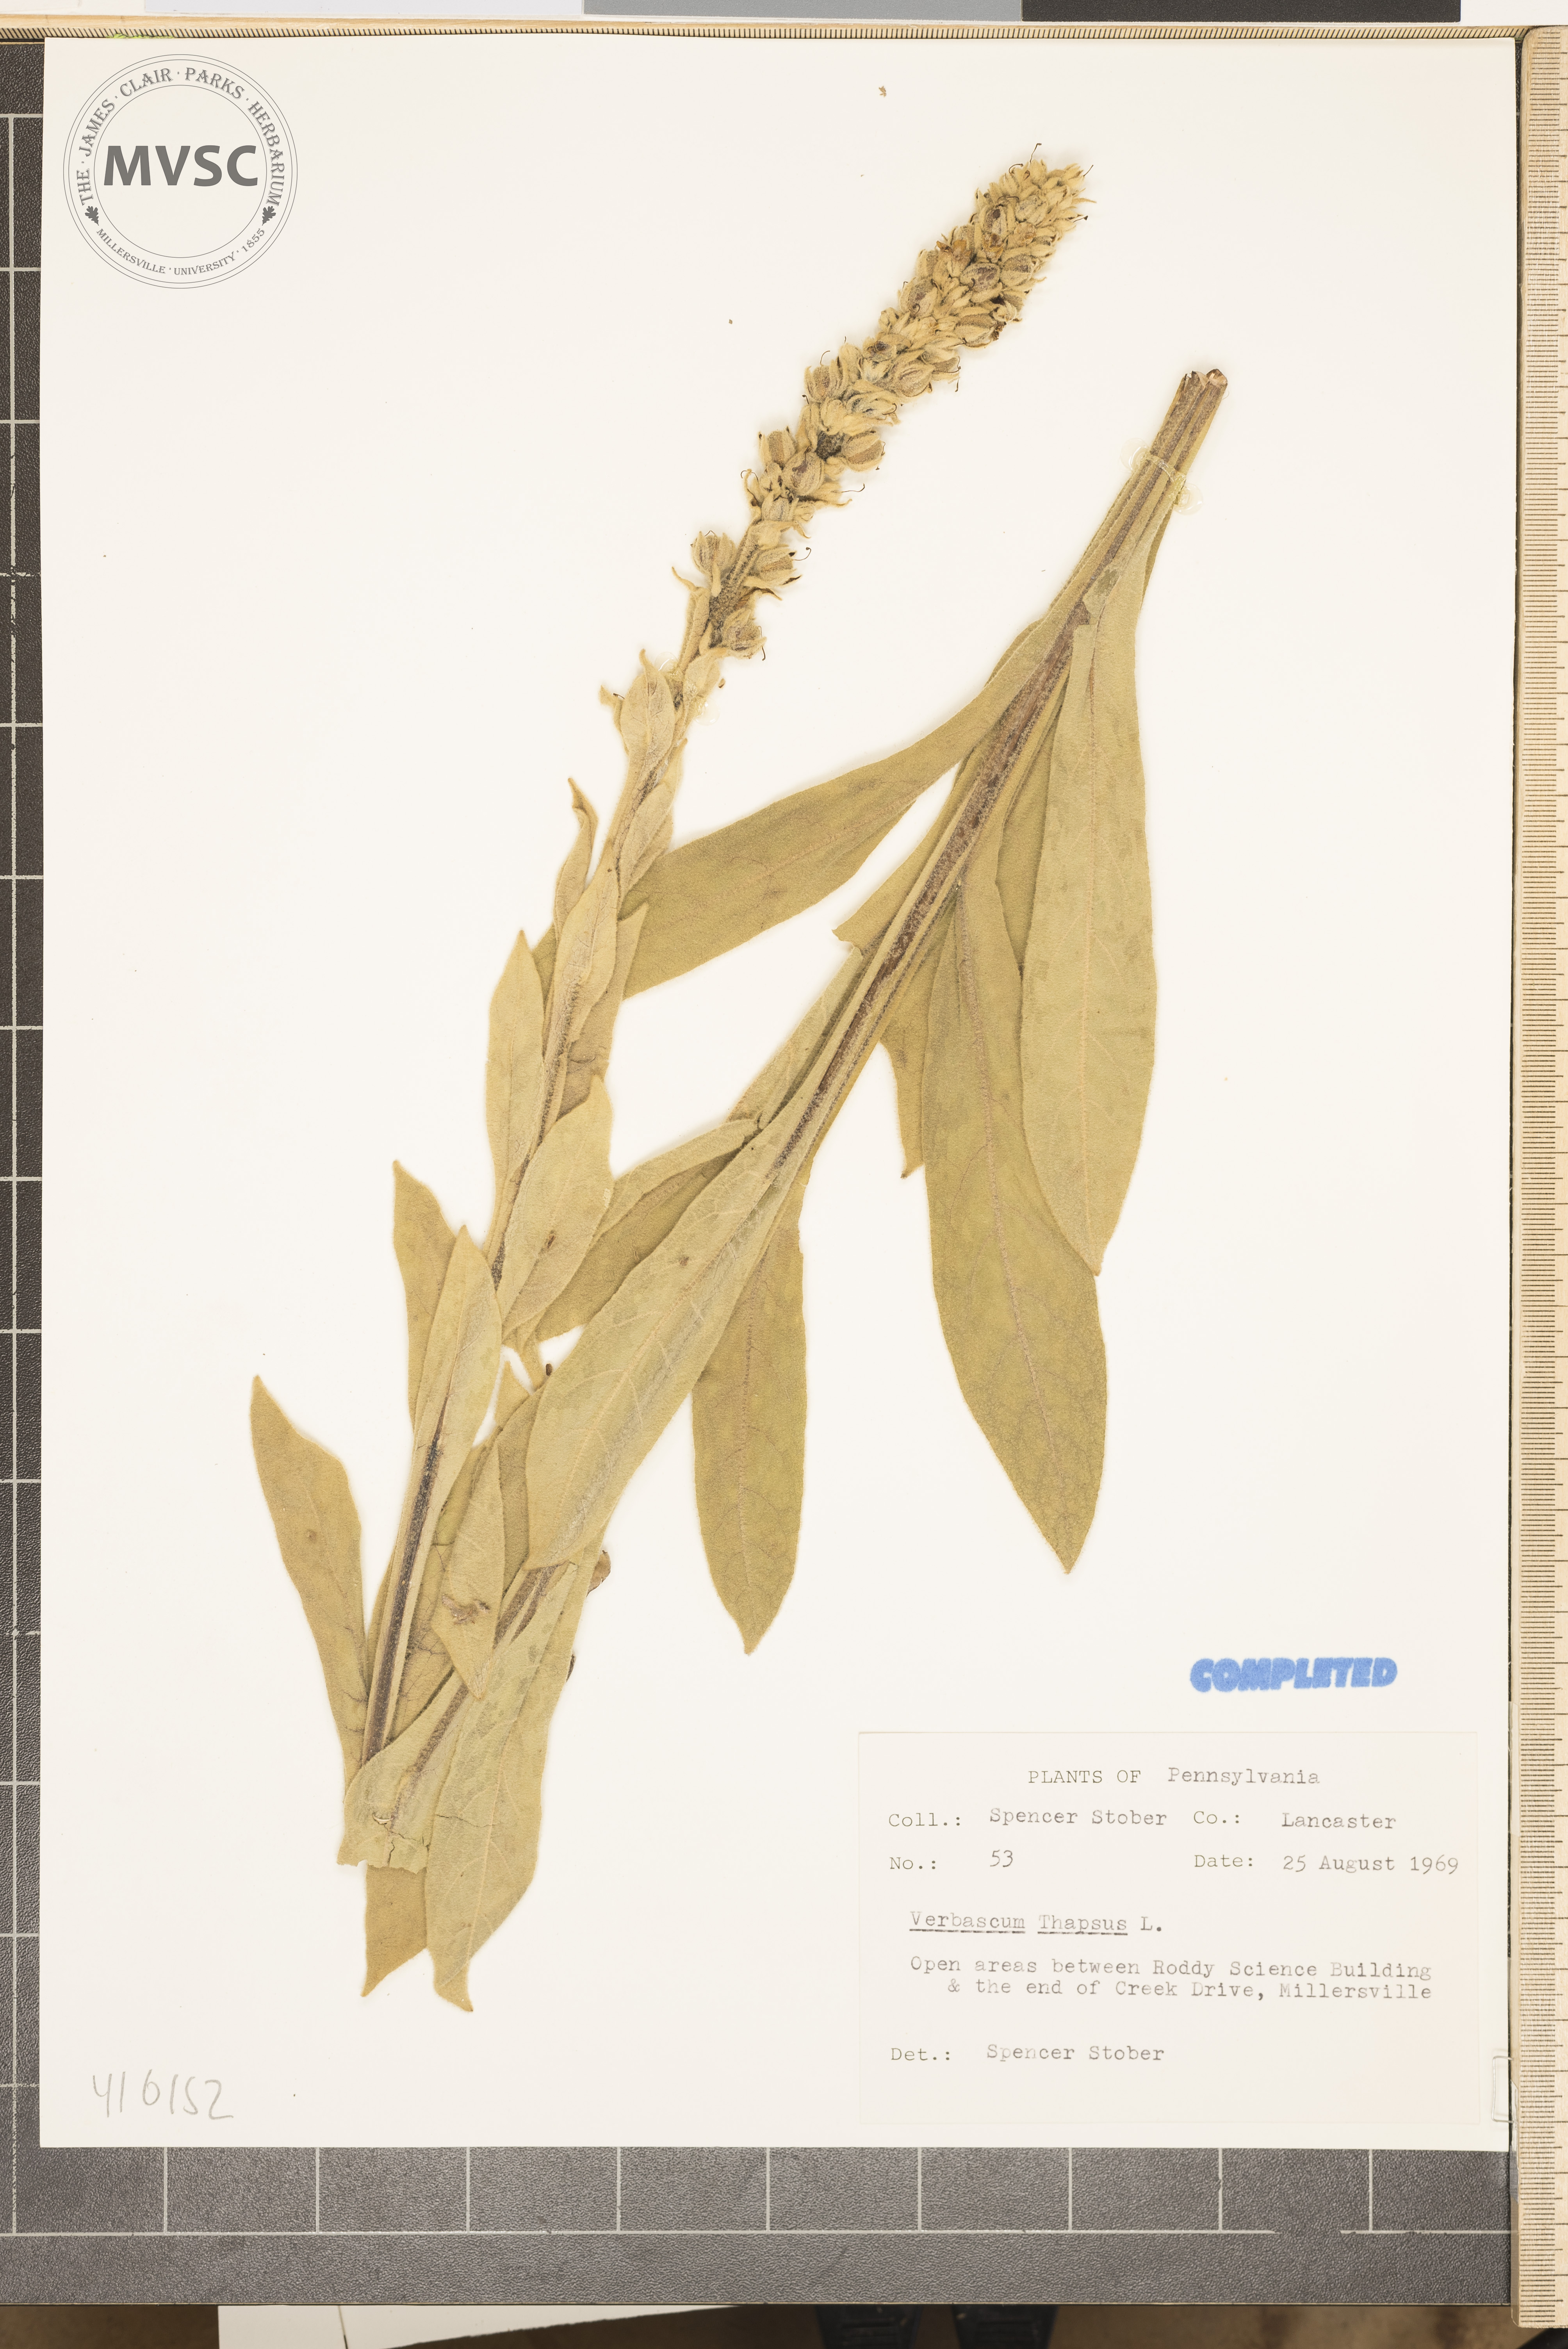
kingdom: Plantae
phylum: Tracheophyta
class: Magnoliopsida
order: Lamiales
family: Scrophulariaceae
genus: Verbascum
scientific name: Verbascum thapsus
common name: Common mullein
